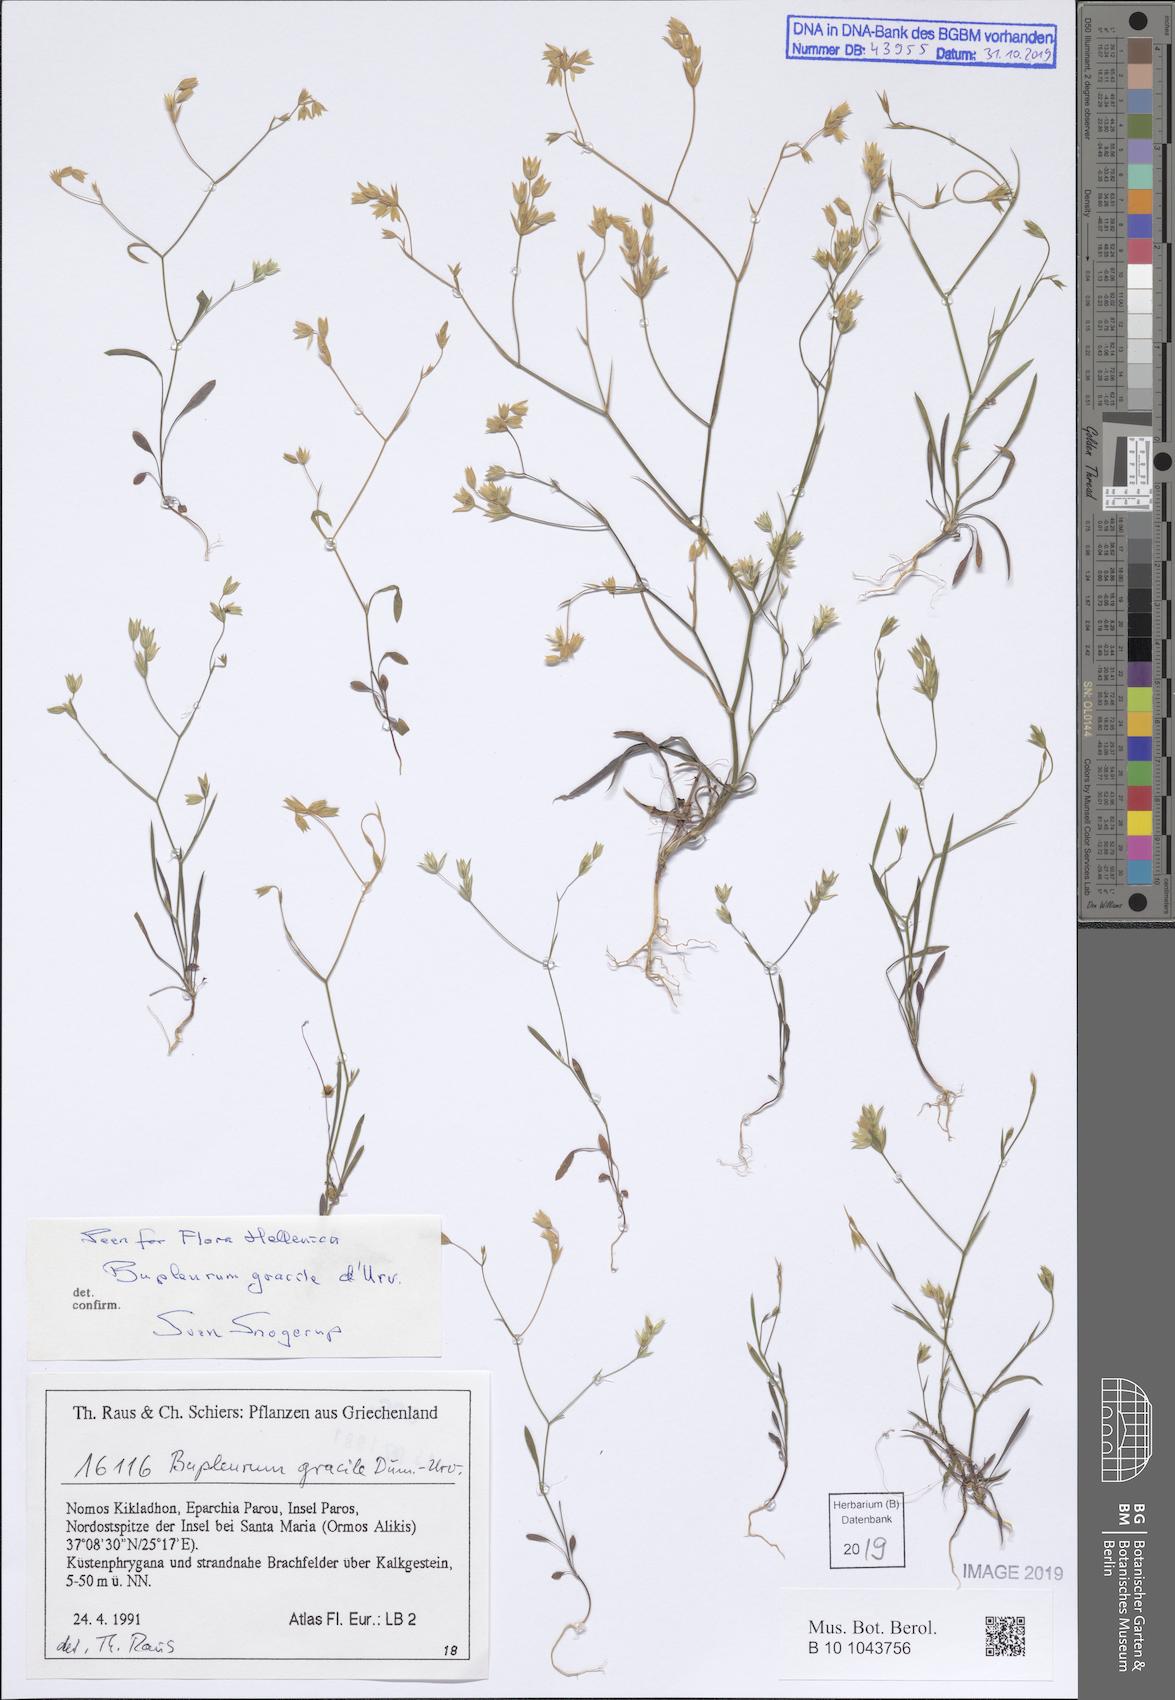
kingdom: Plantae
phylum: Tracheophyta
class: Magnoliopsida
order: Apiales
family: Apiaceae
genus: Bupleurum
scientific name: Bupleurum gracile
